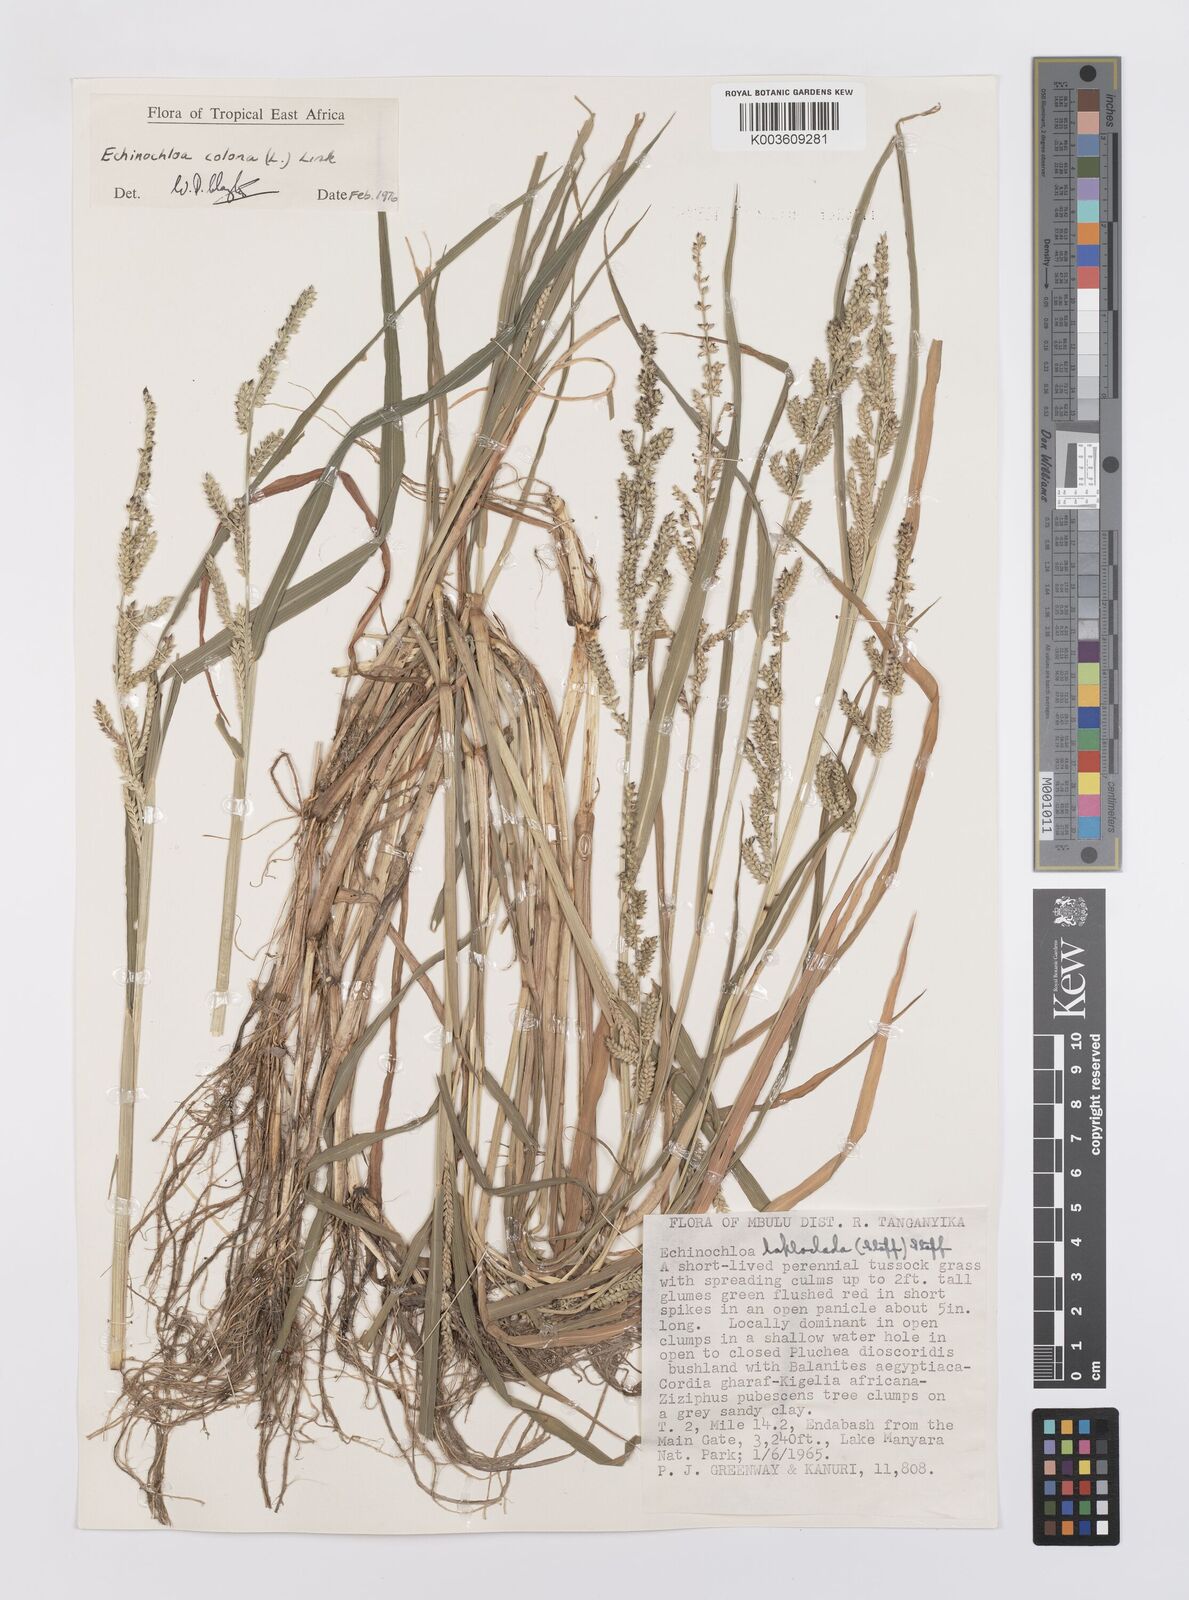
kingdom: Plantae
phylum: Tracheophyta
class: Liliopsida
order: Poales
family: Poaceae
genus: Echinochloa
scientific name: Echinochloa colonum
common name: Jungle rice
